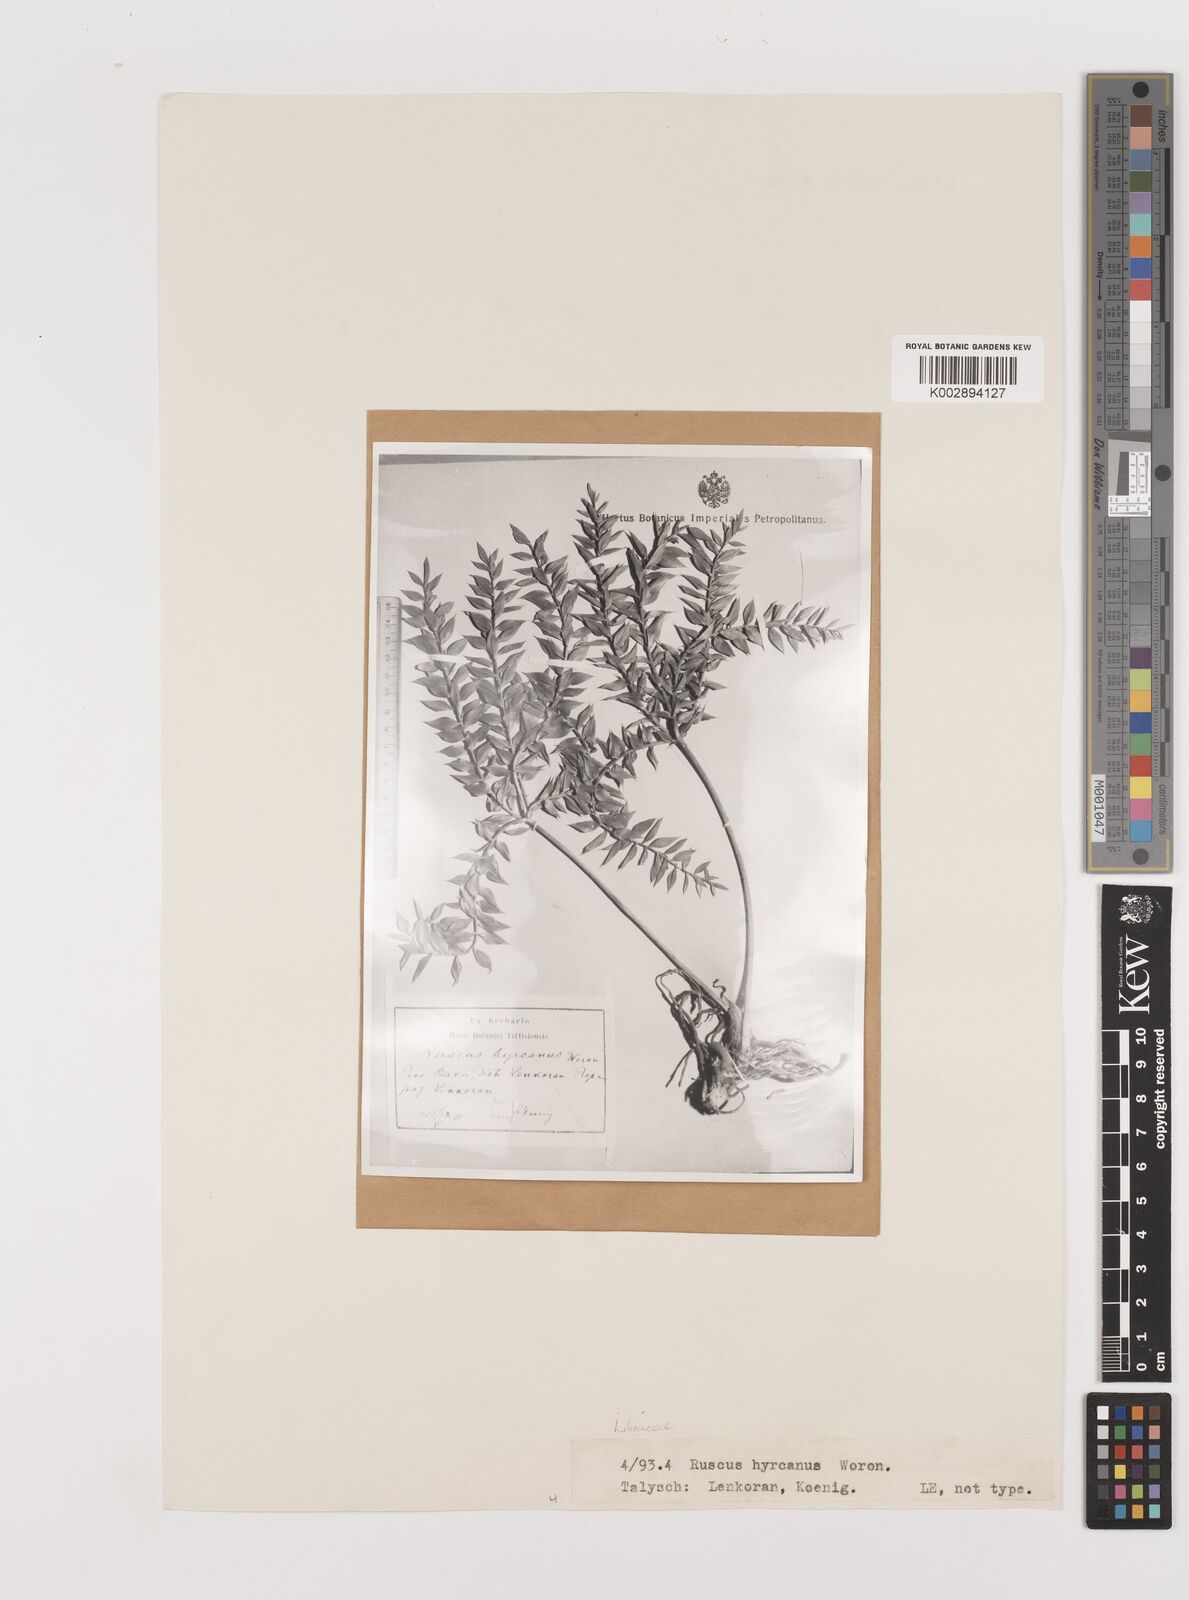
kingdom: Plantae
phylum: Tracheophyta
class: Liliopsida
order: Asparagales
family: Asparagaceae
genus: Ruscus
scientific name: Ruscus hyrcanus
